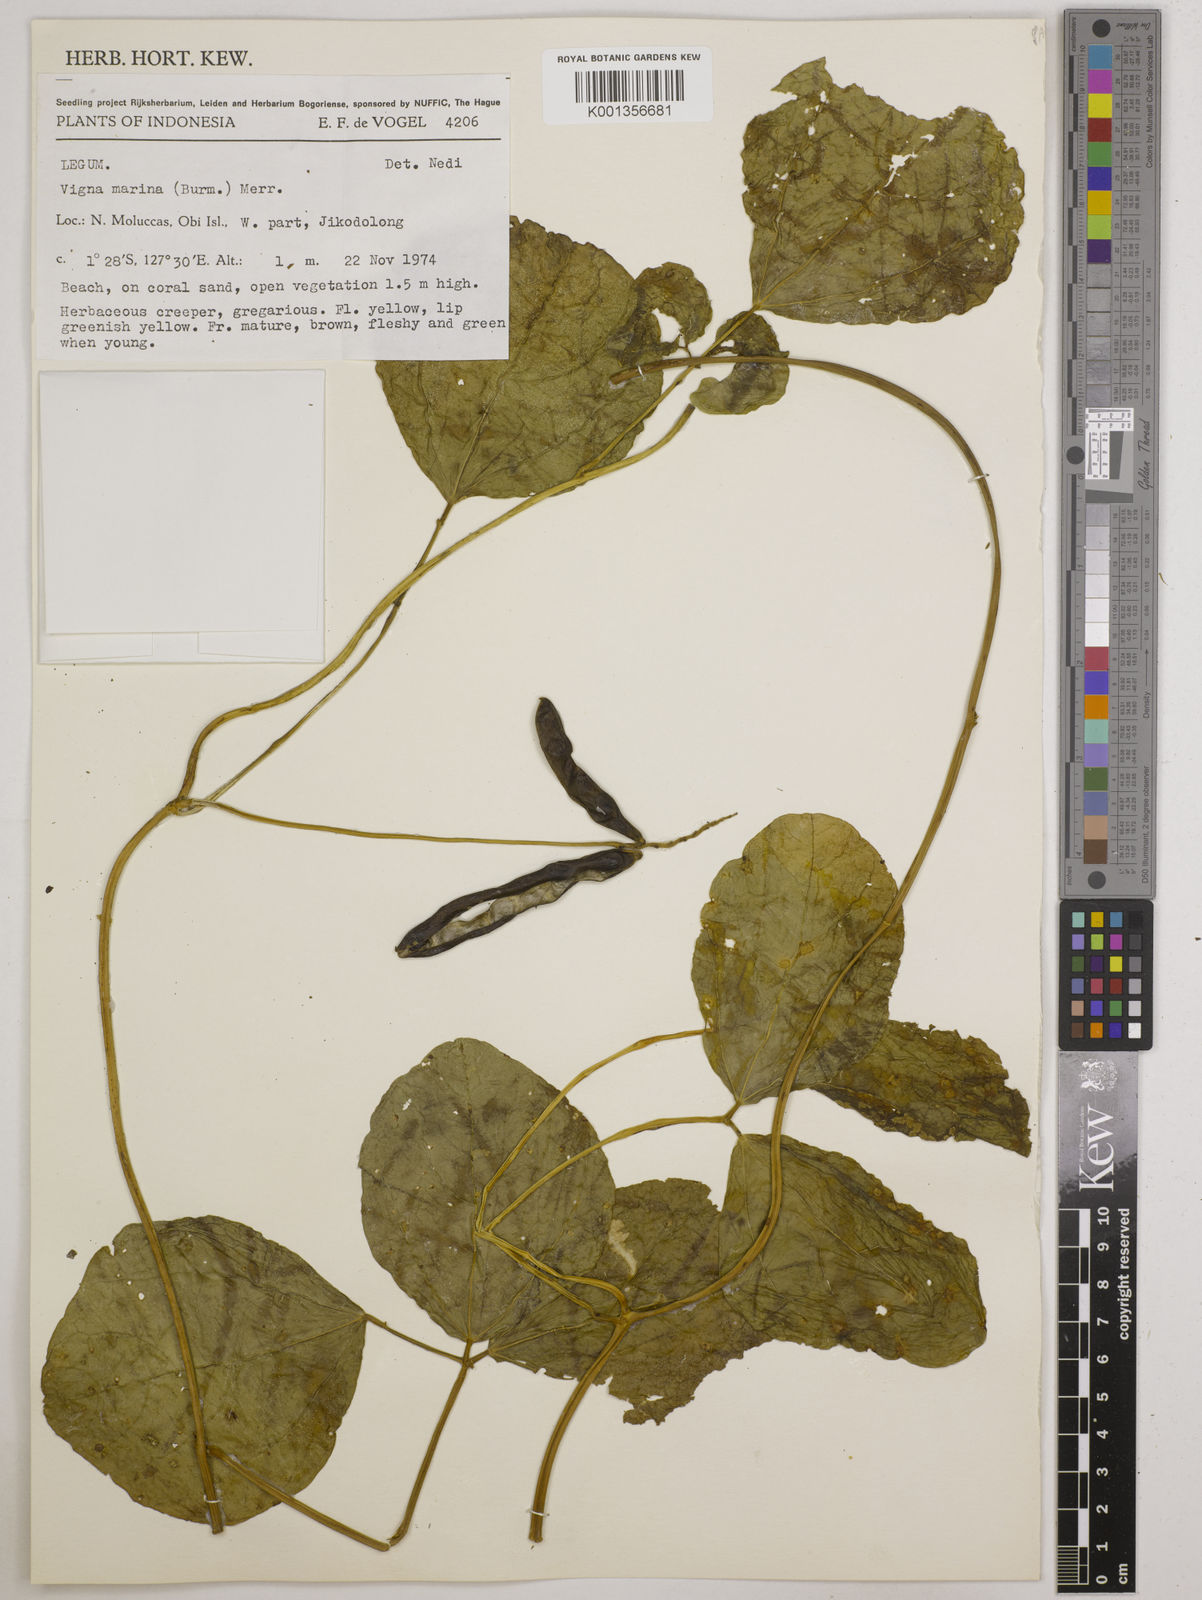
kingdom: Plantae
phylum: Tracheophyta
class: Magnoliopsida
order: Fabales
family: Fabaceae
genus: Vigna
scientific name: Vigna marina
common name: Dune-bean
